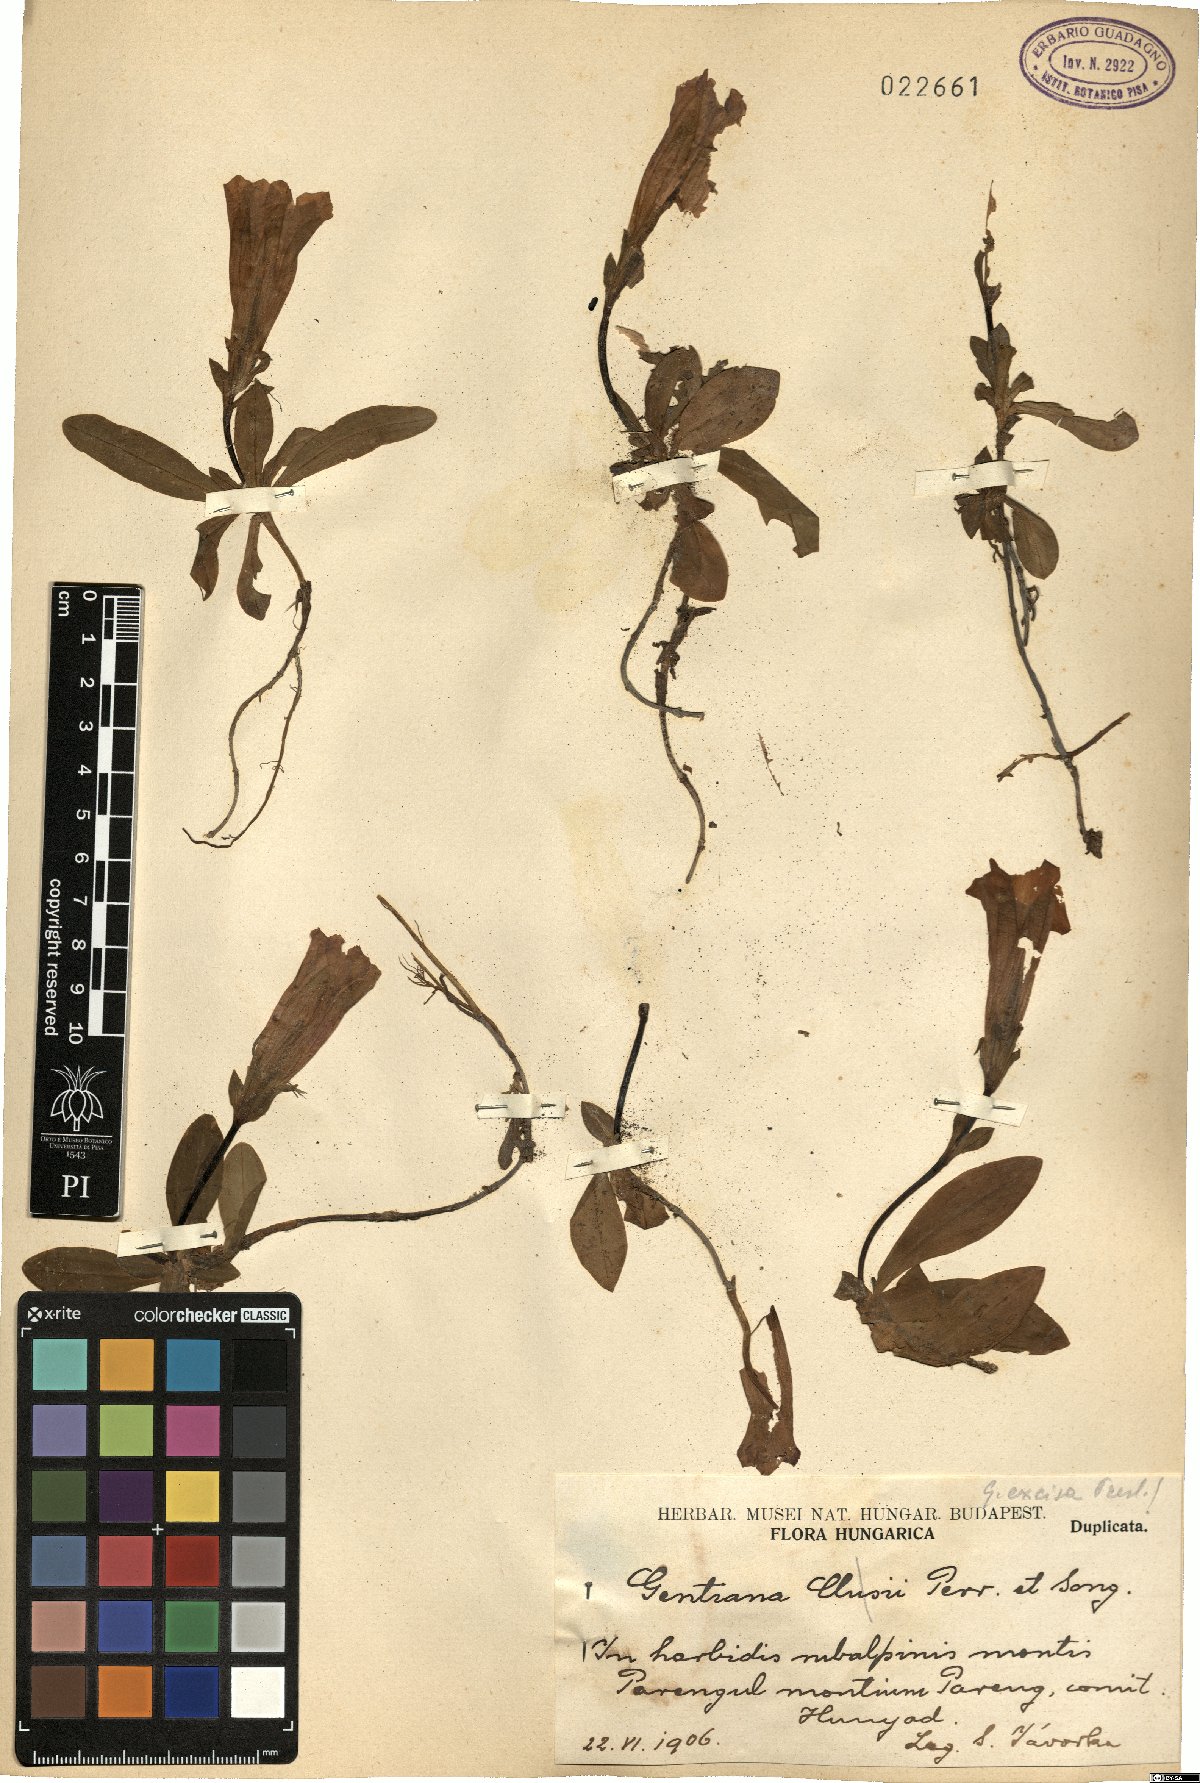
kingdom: Plantae
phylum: Tracheophyta
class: Magnoliopsida
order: Gentianales
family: Gentianaceae
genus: Gentiana
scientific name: Gentiana acaulis
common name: Trumpet gentian
